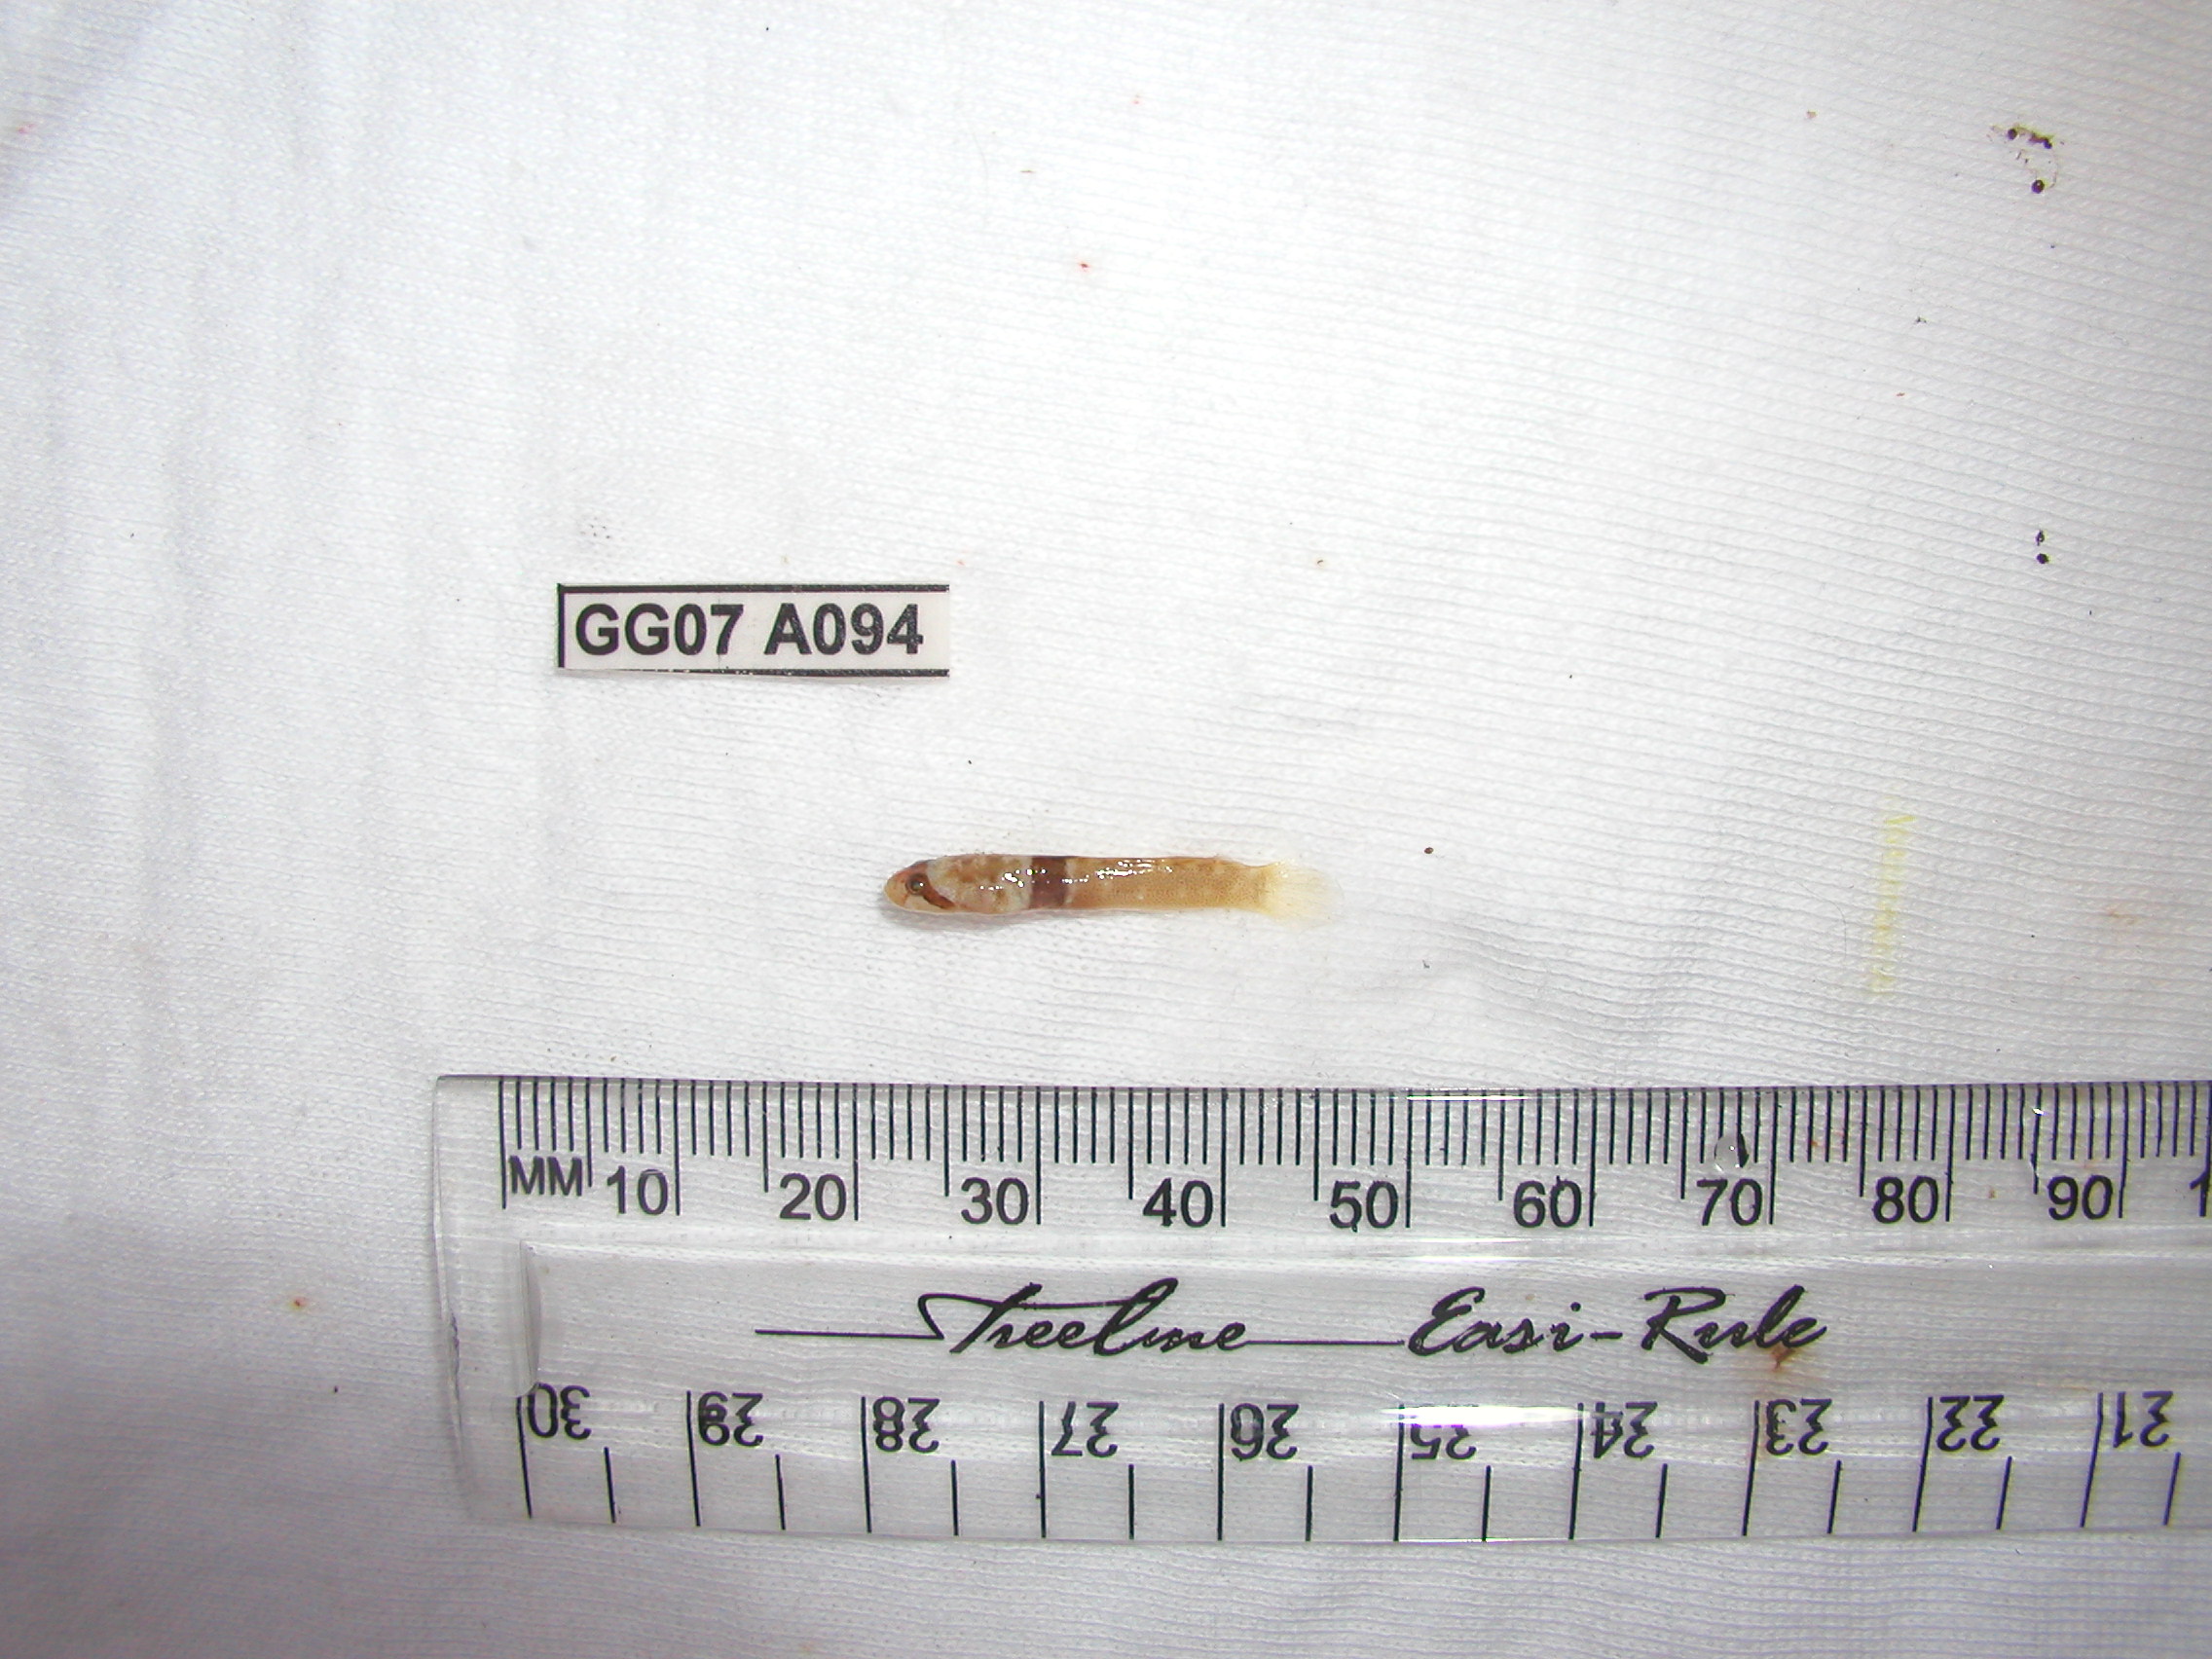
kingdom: Animalia
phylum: Chordata
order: Perciformes
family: Gobiidae
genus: Hetereleotris
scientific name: Hetereleotris zonata
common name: Goggles
